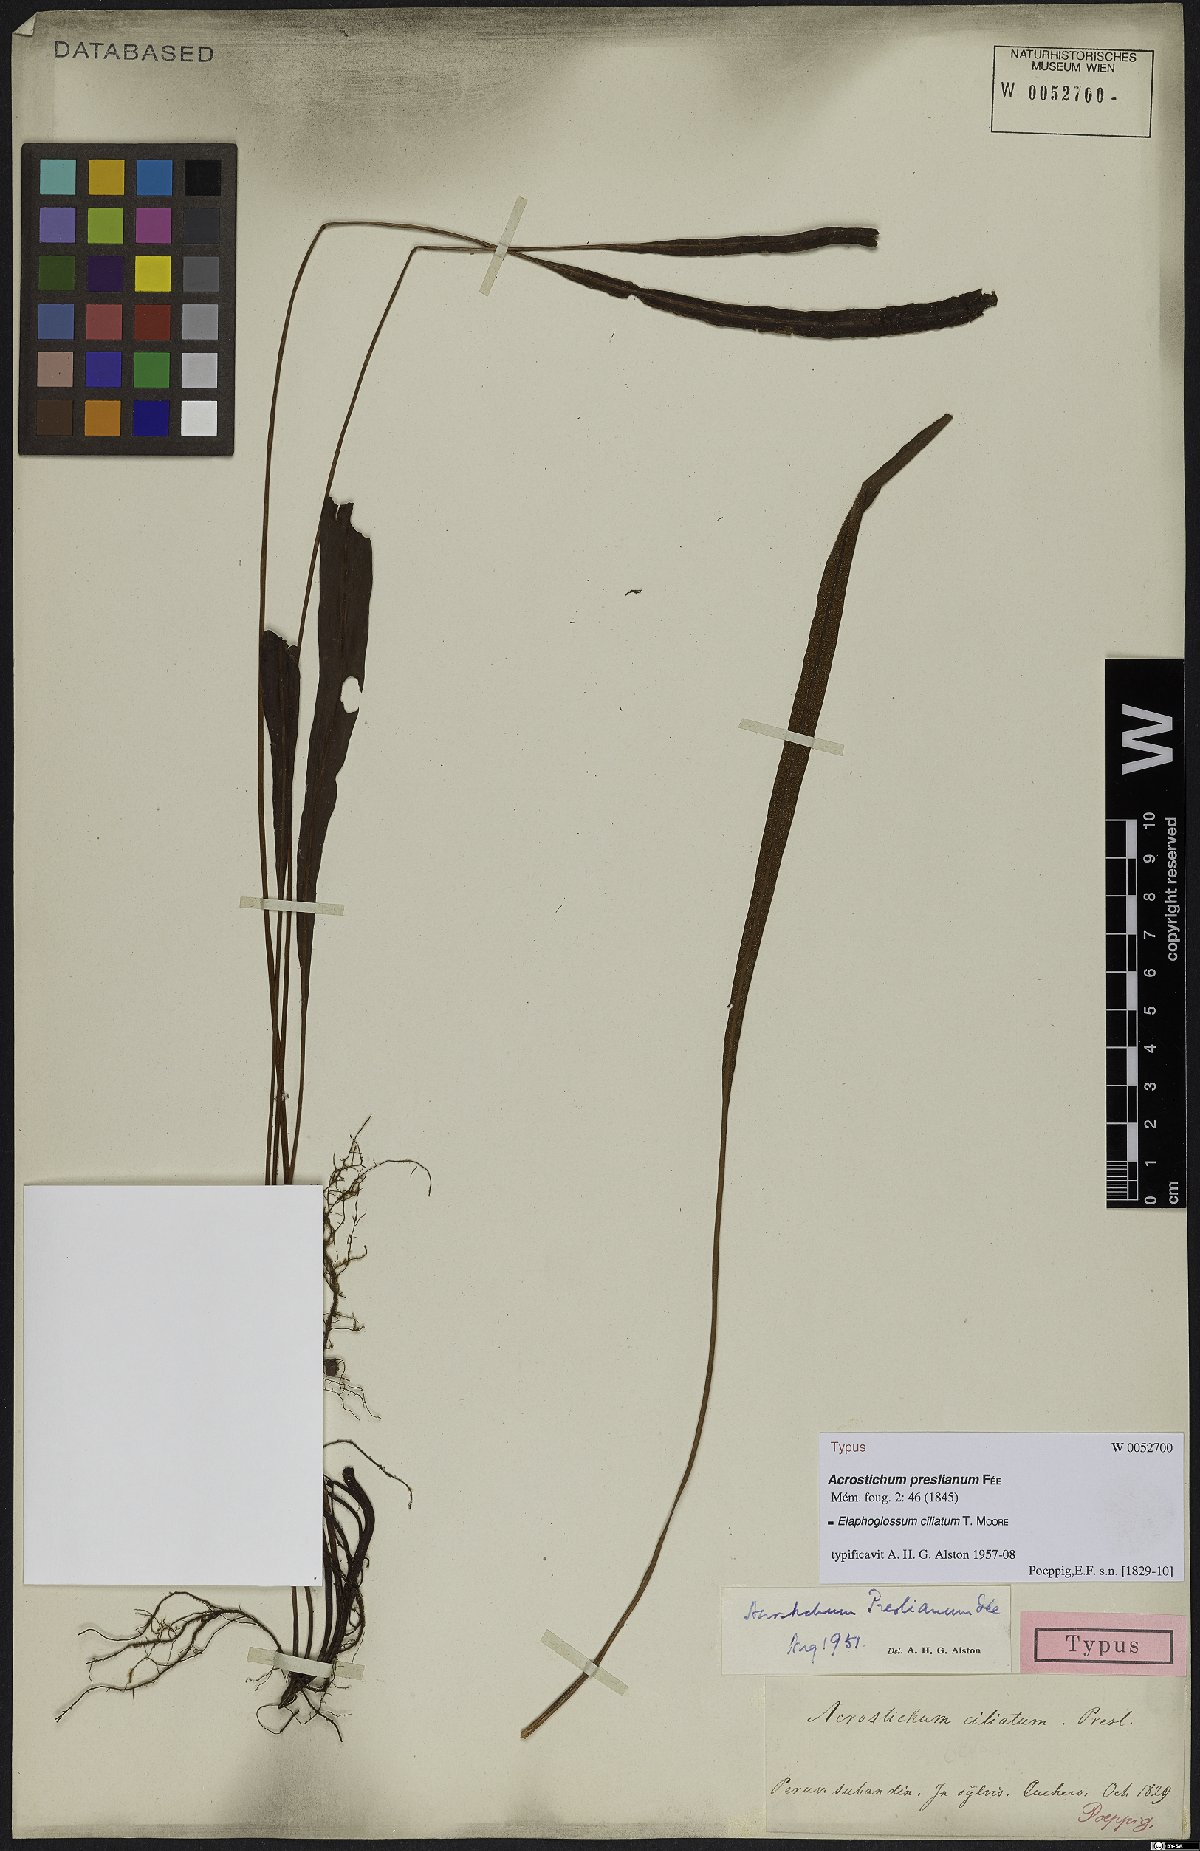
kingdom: Plantae
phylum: Tracheophyta
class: Polypodiopsida
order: Polypodiales
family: Dryopteridaceae
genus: Elaphoglossum
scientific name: Elaphoglossum ciliatum
